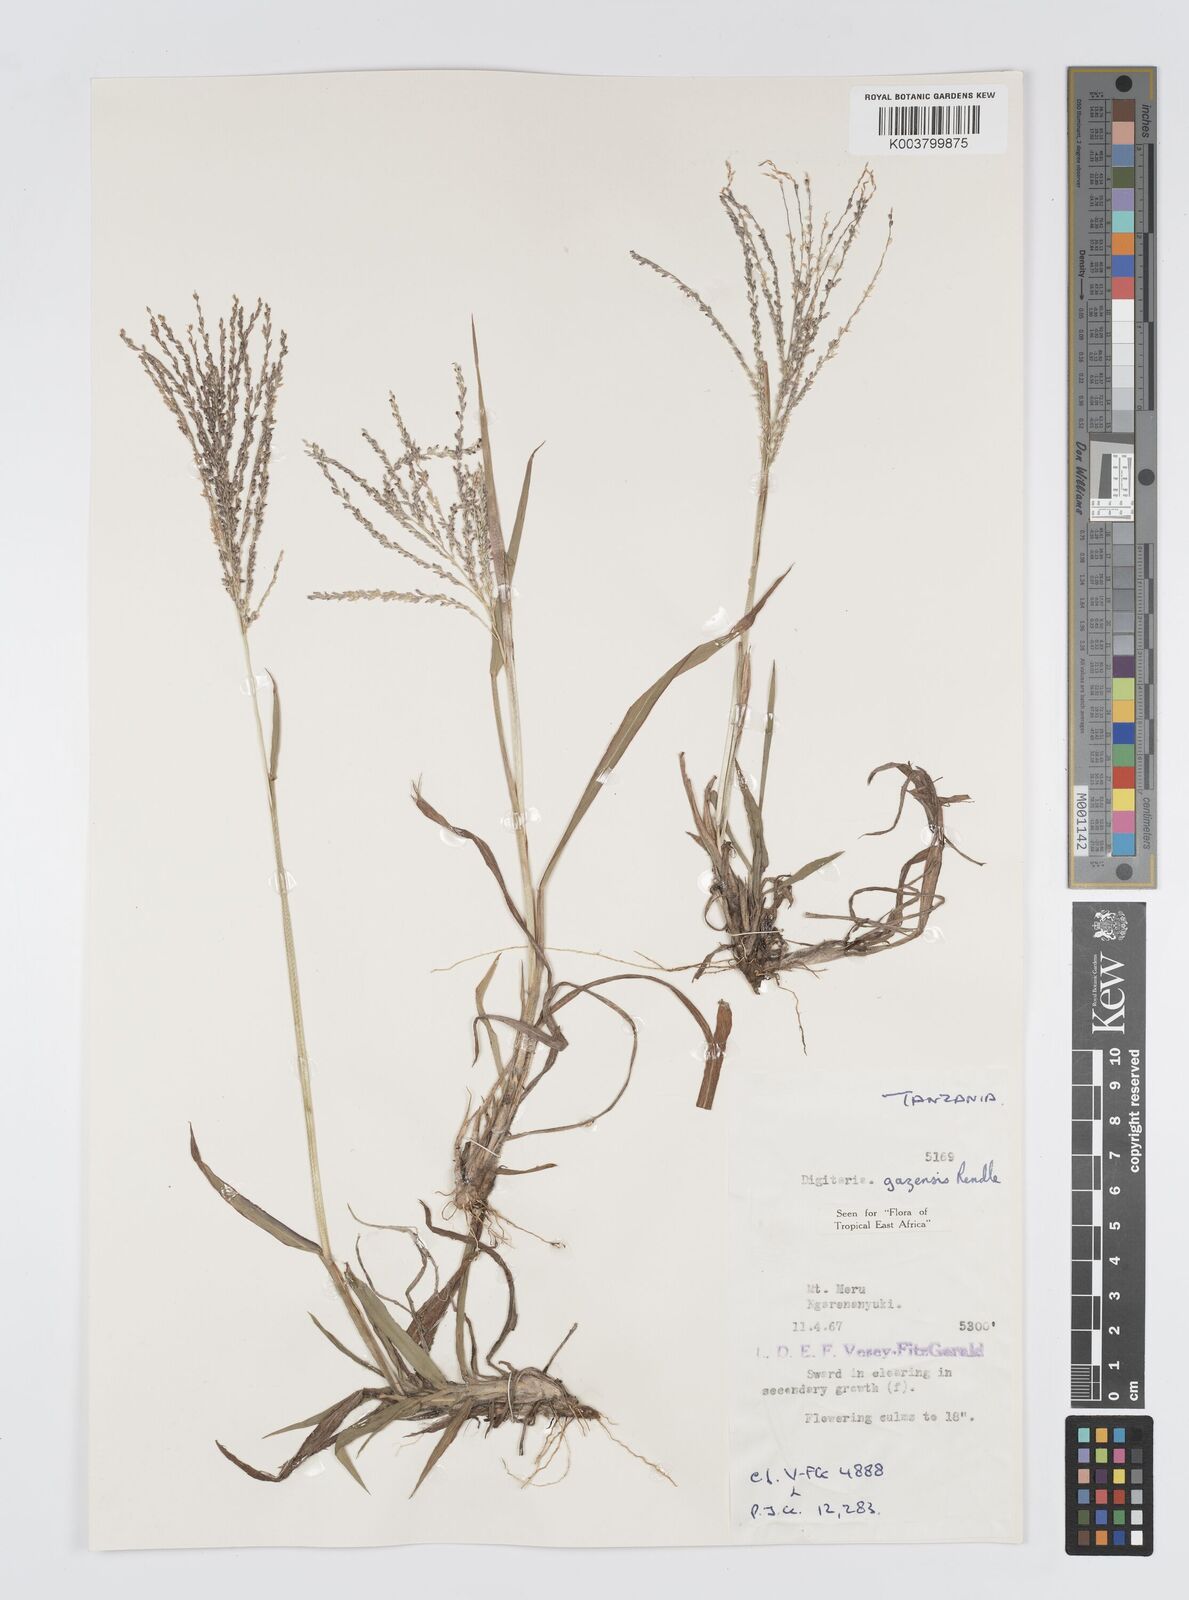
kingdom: Plantae
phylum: Tracheophyta
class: Liliopsida
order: Poales
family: Poaceae
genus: Digitaria
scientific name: Digitaria gazensis
